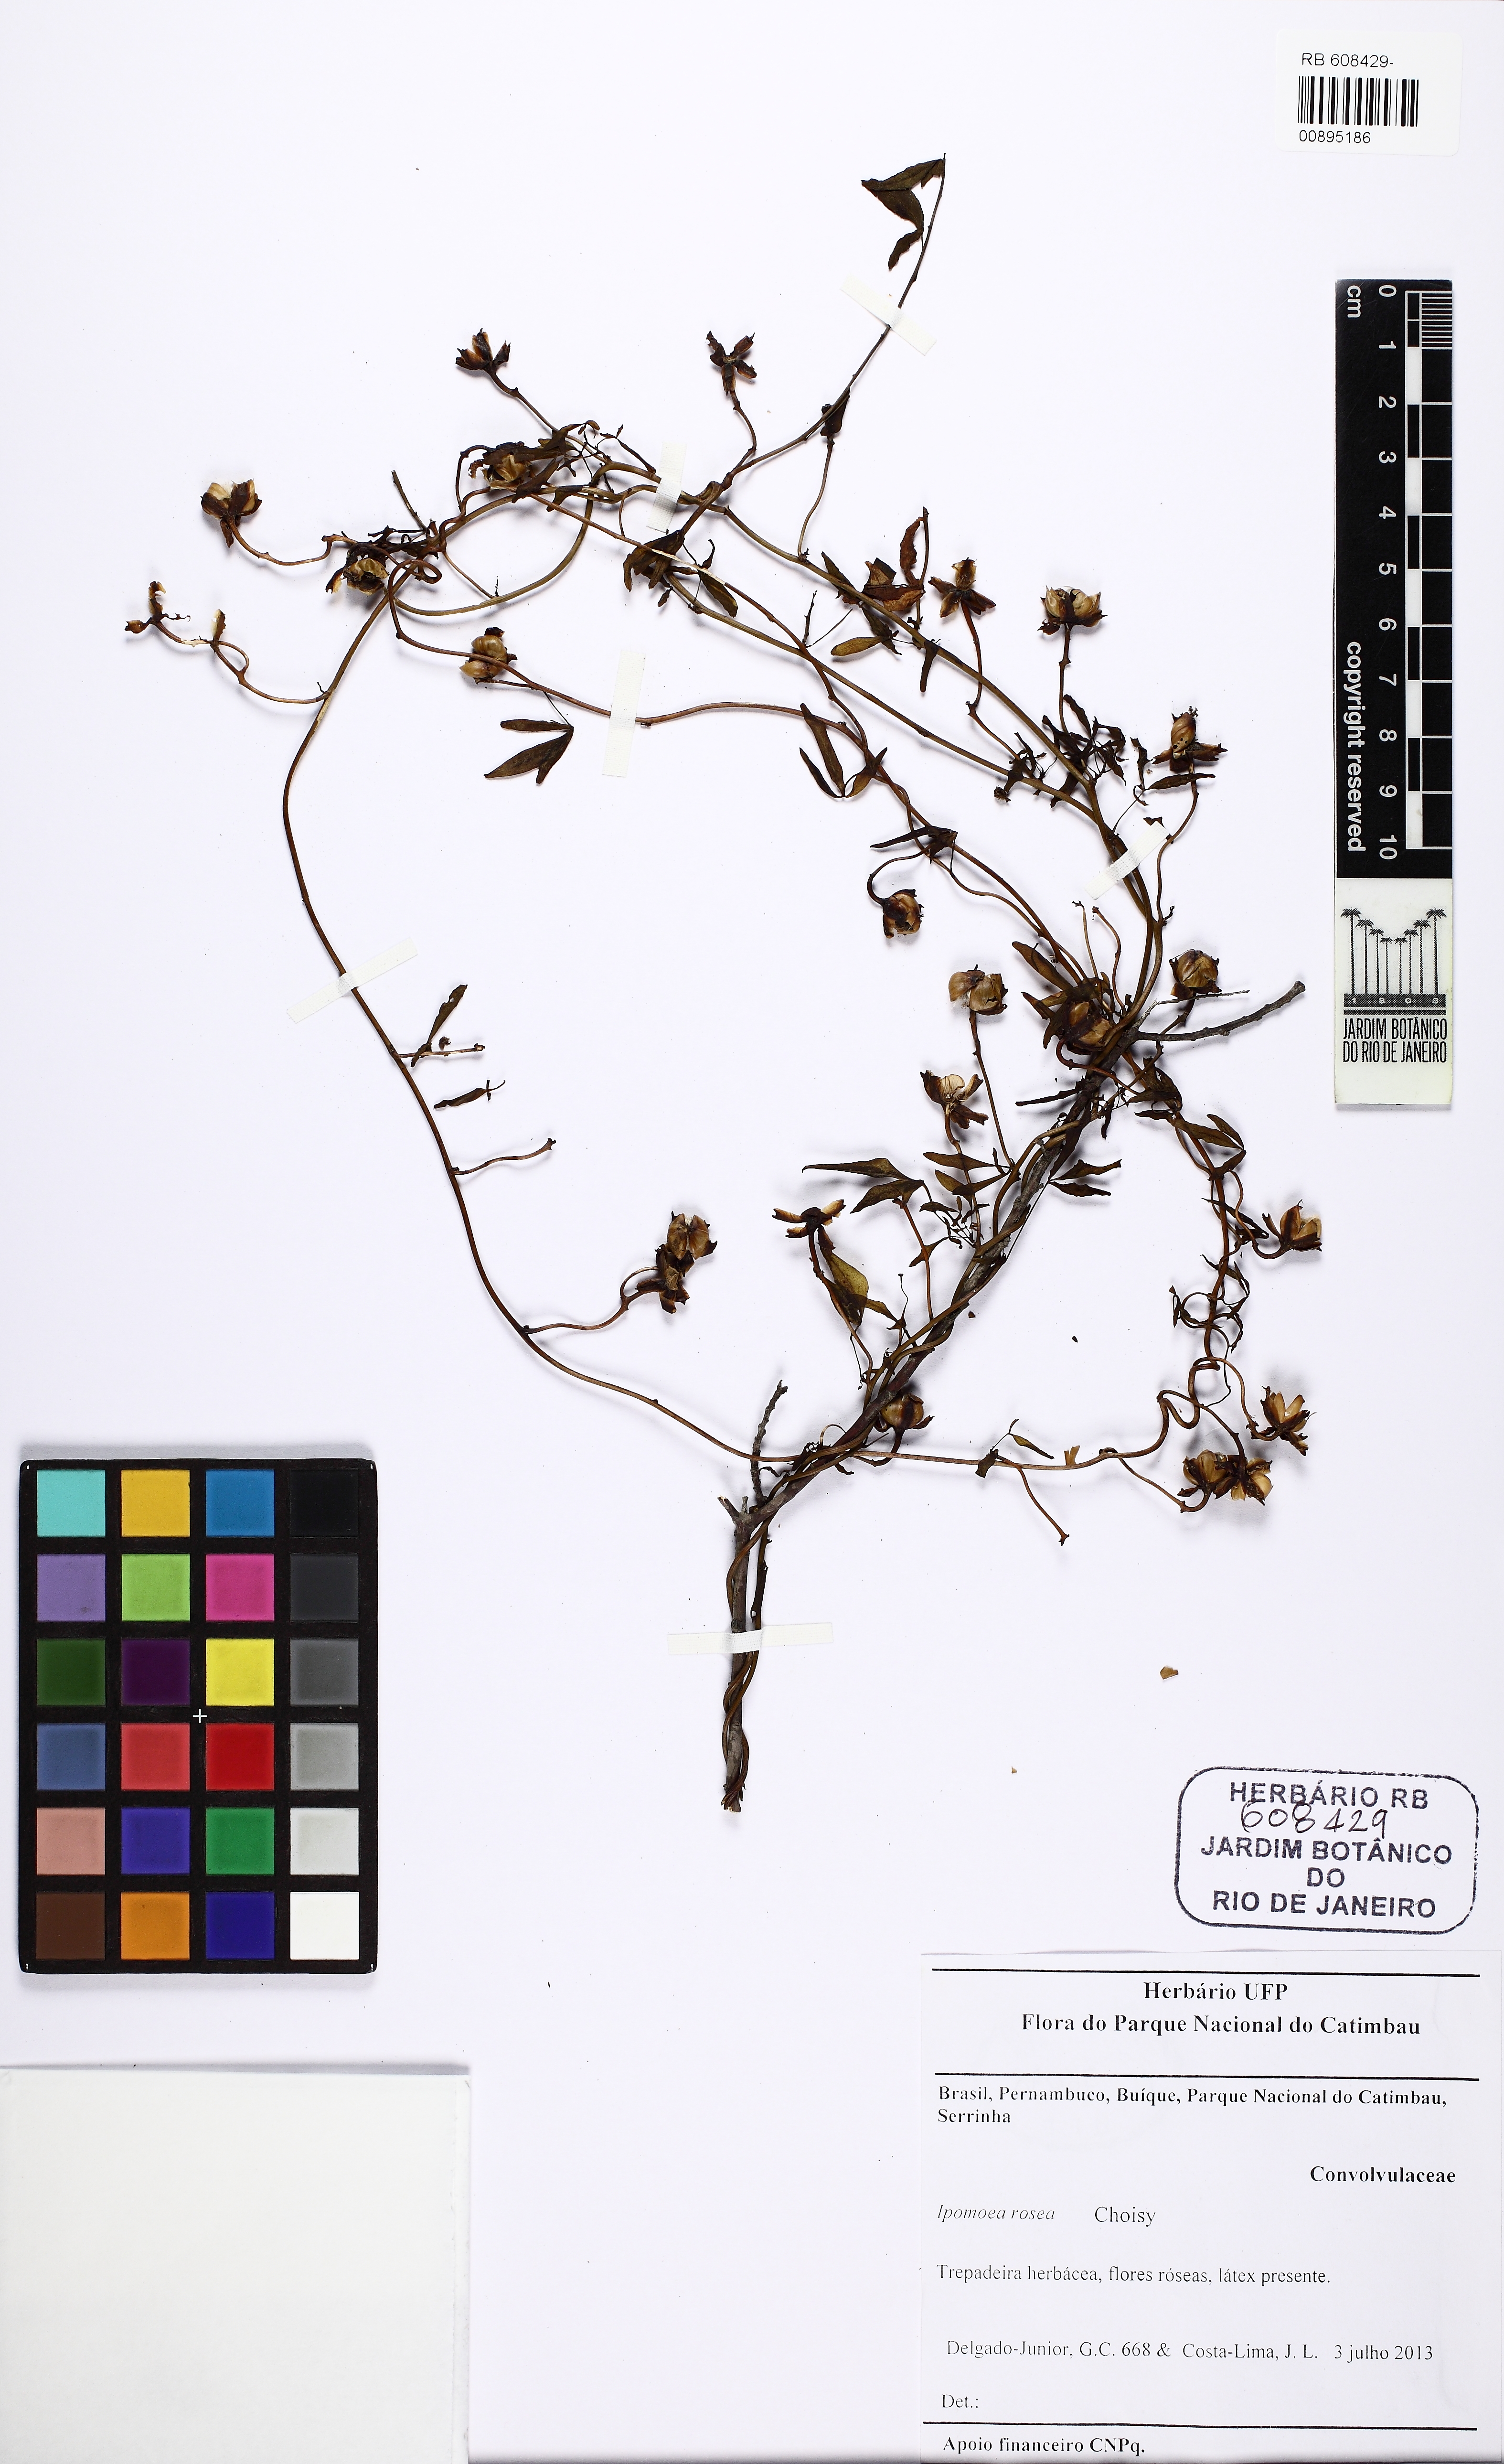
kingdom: Plantae
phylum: Tracheophyta
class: Magnoliopsida
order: Solanales
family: Convolvulaceae
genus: Ipomoea
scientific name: Ipomoea rosea
